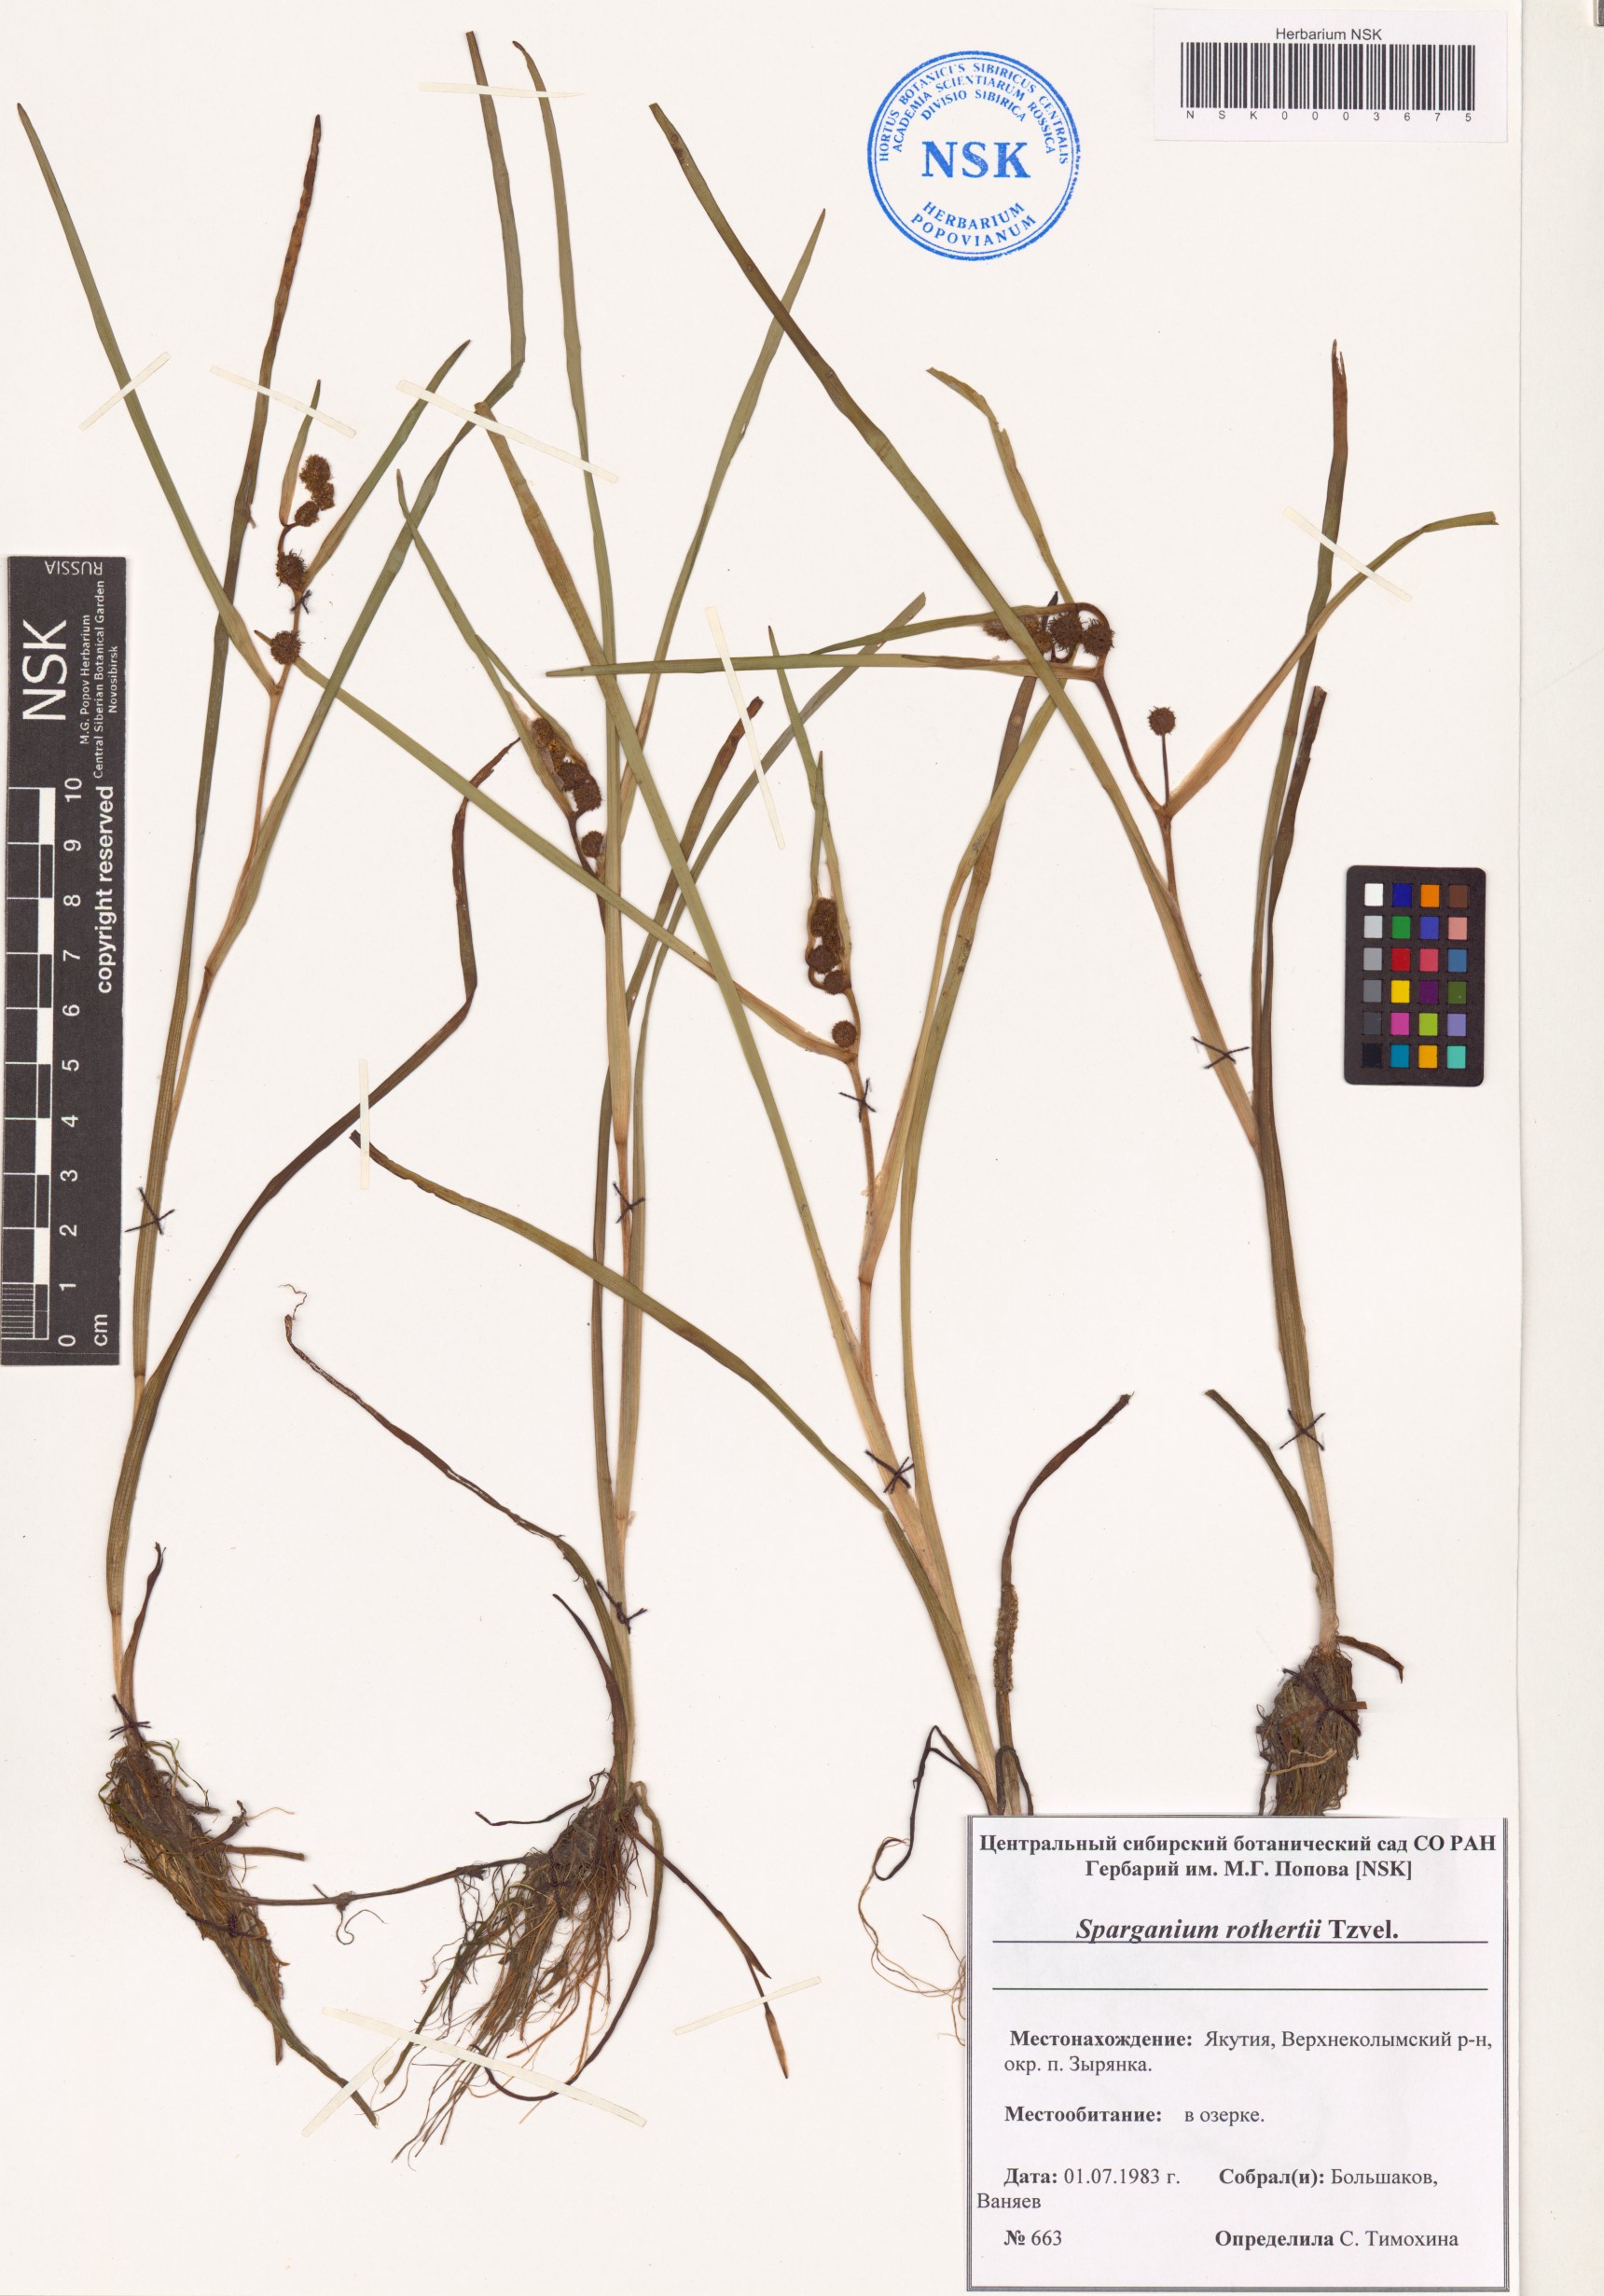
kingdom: Plantae
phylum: Tracheophyta
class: Liliopsida
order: Poales
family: Typhaceae
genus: Sparganium
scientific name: Sparganium rothertii
